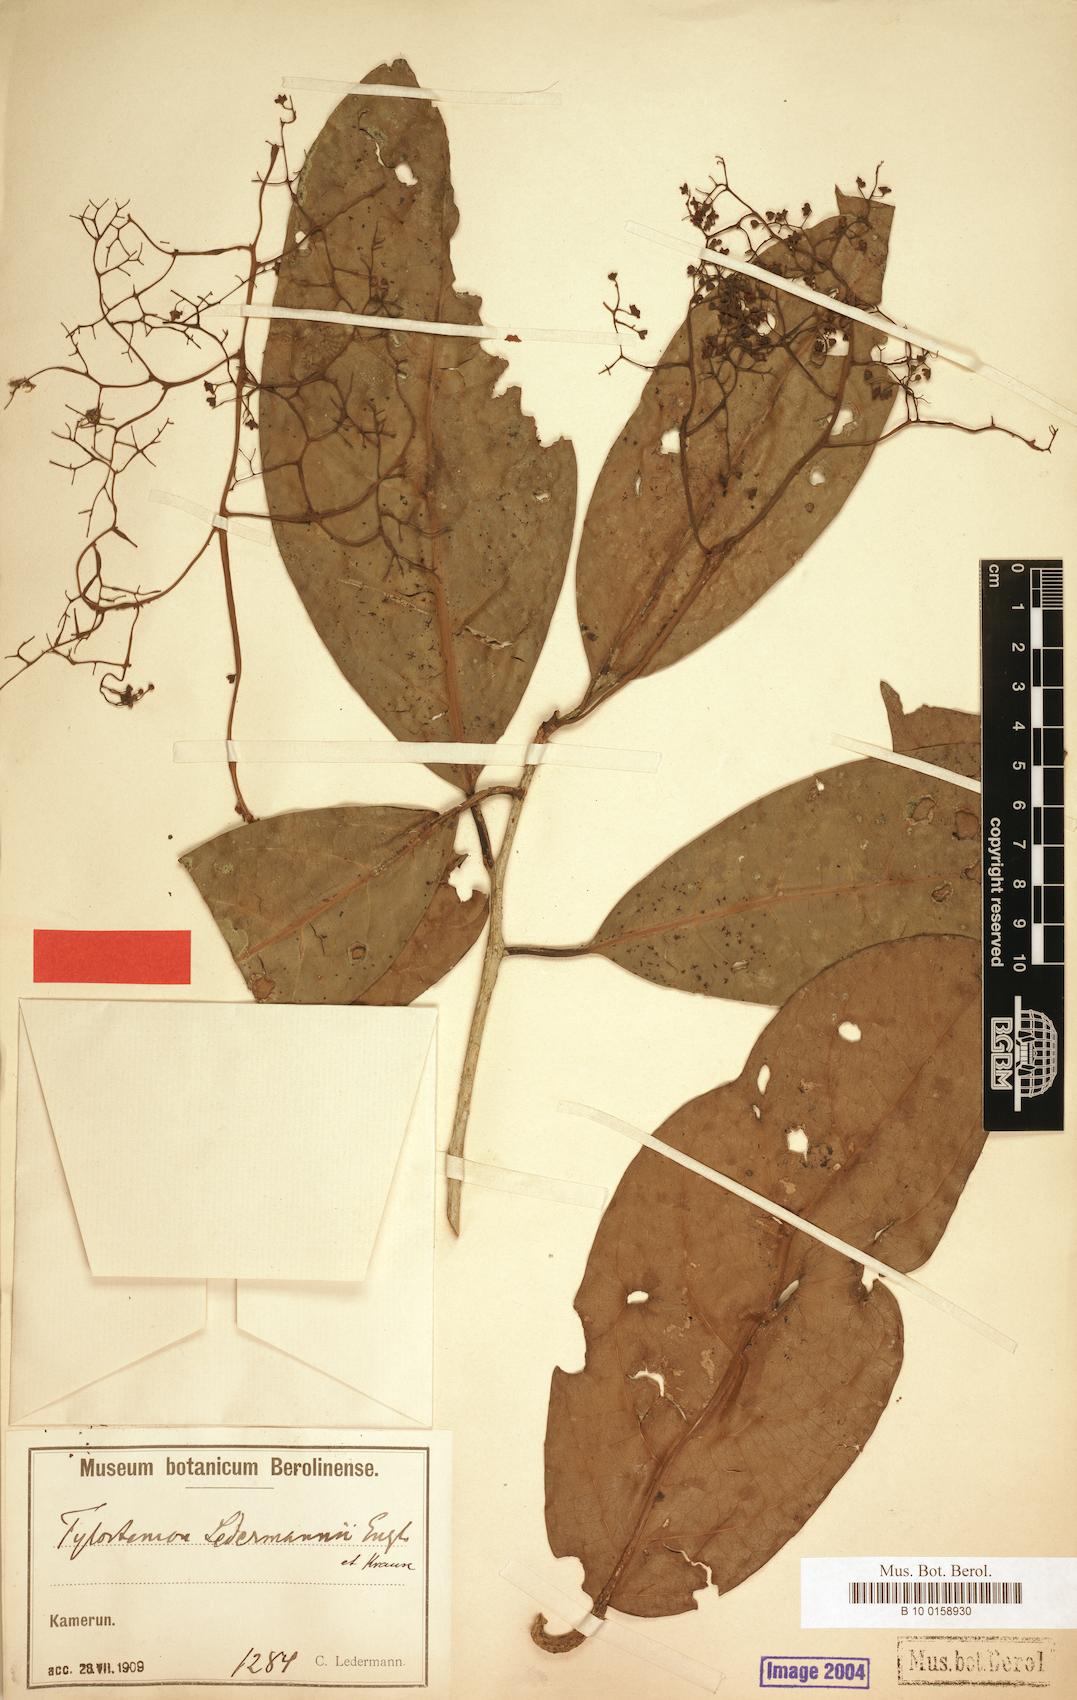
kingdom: Plantae
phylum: Tracheophyta
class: Magnoliopsida
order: Laurales
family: Lauraceae
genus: Beilschmiedia
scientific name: Beilschmiedia robynsiana
